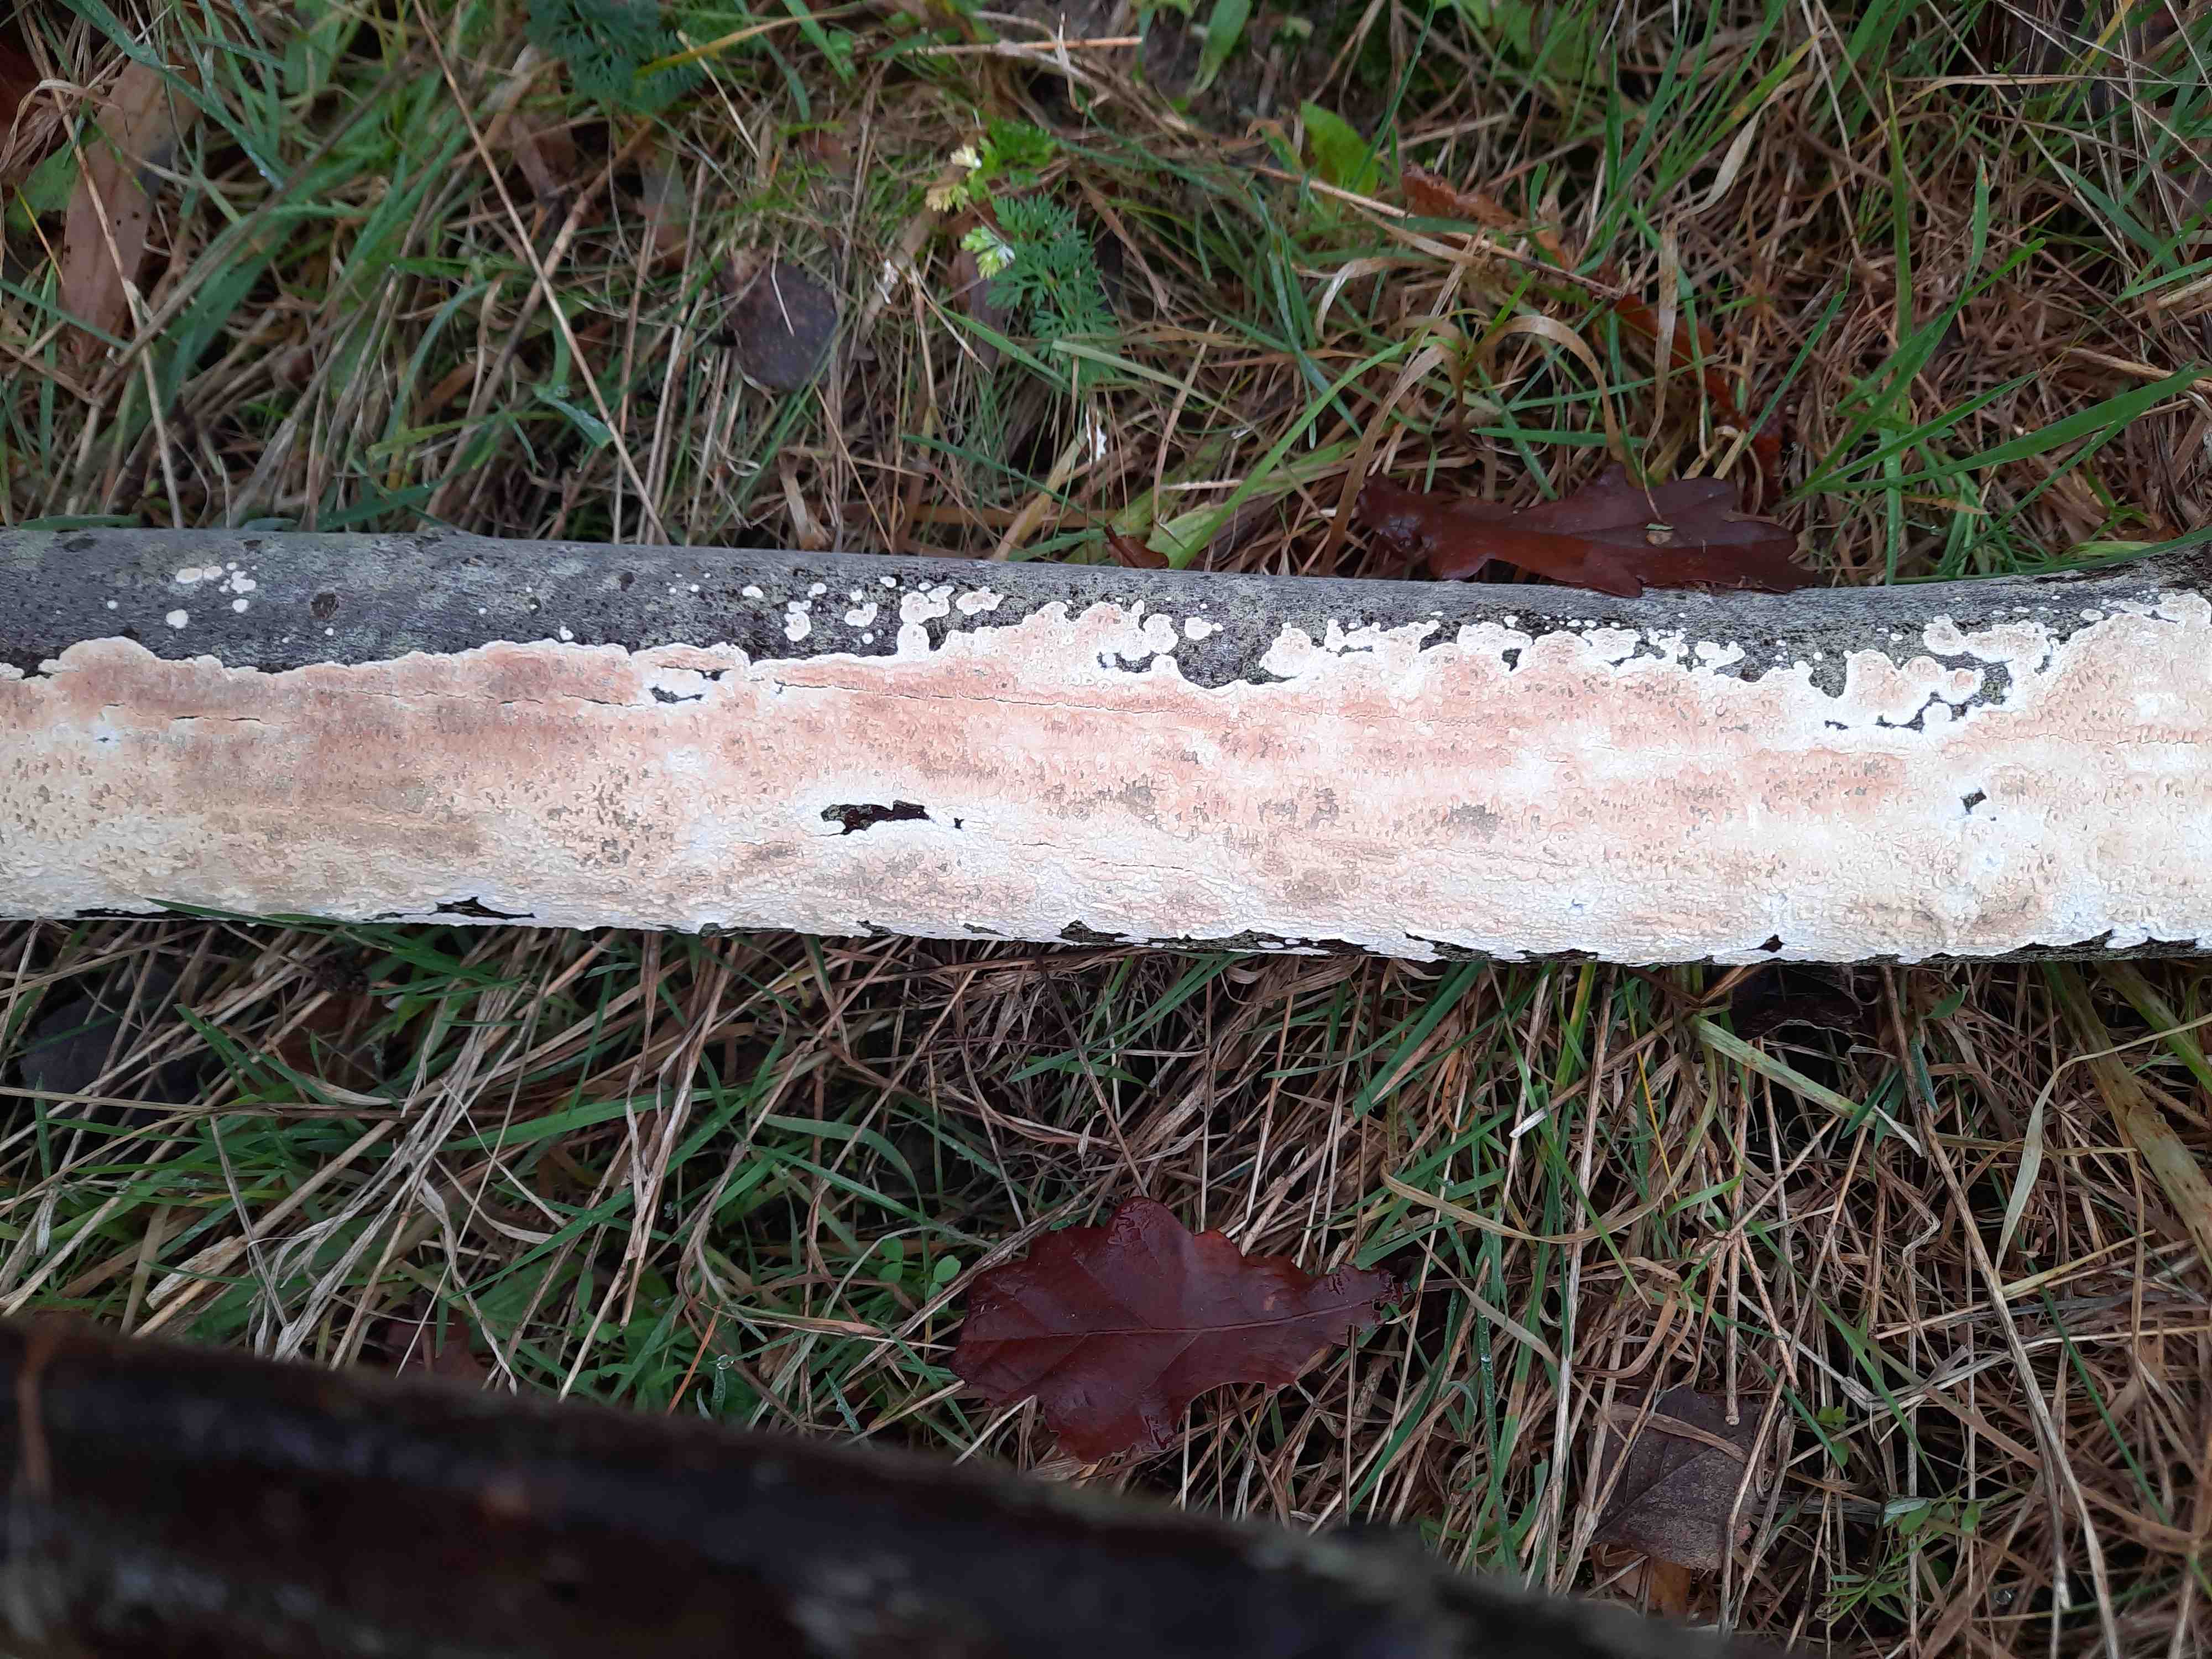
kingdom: Fungi
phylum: Basidiomycota
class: Agaricomycetes
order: Corticiales
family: Corticiaceae
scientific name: Corticiaceae
